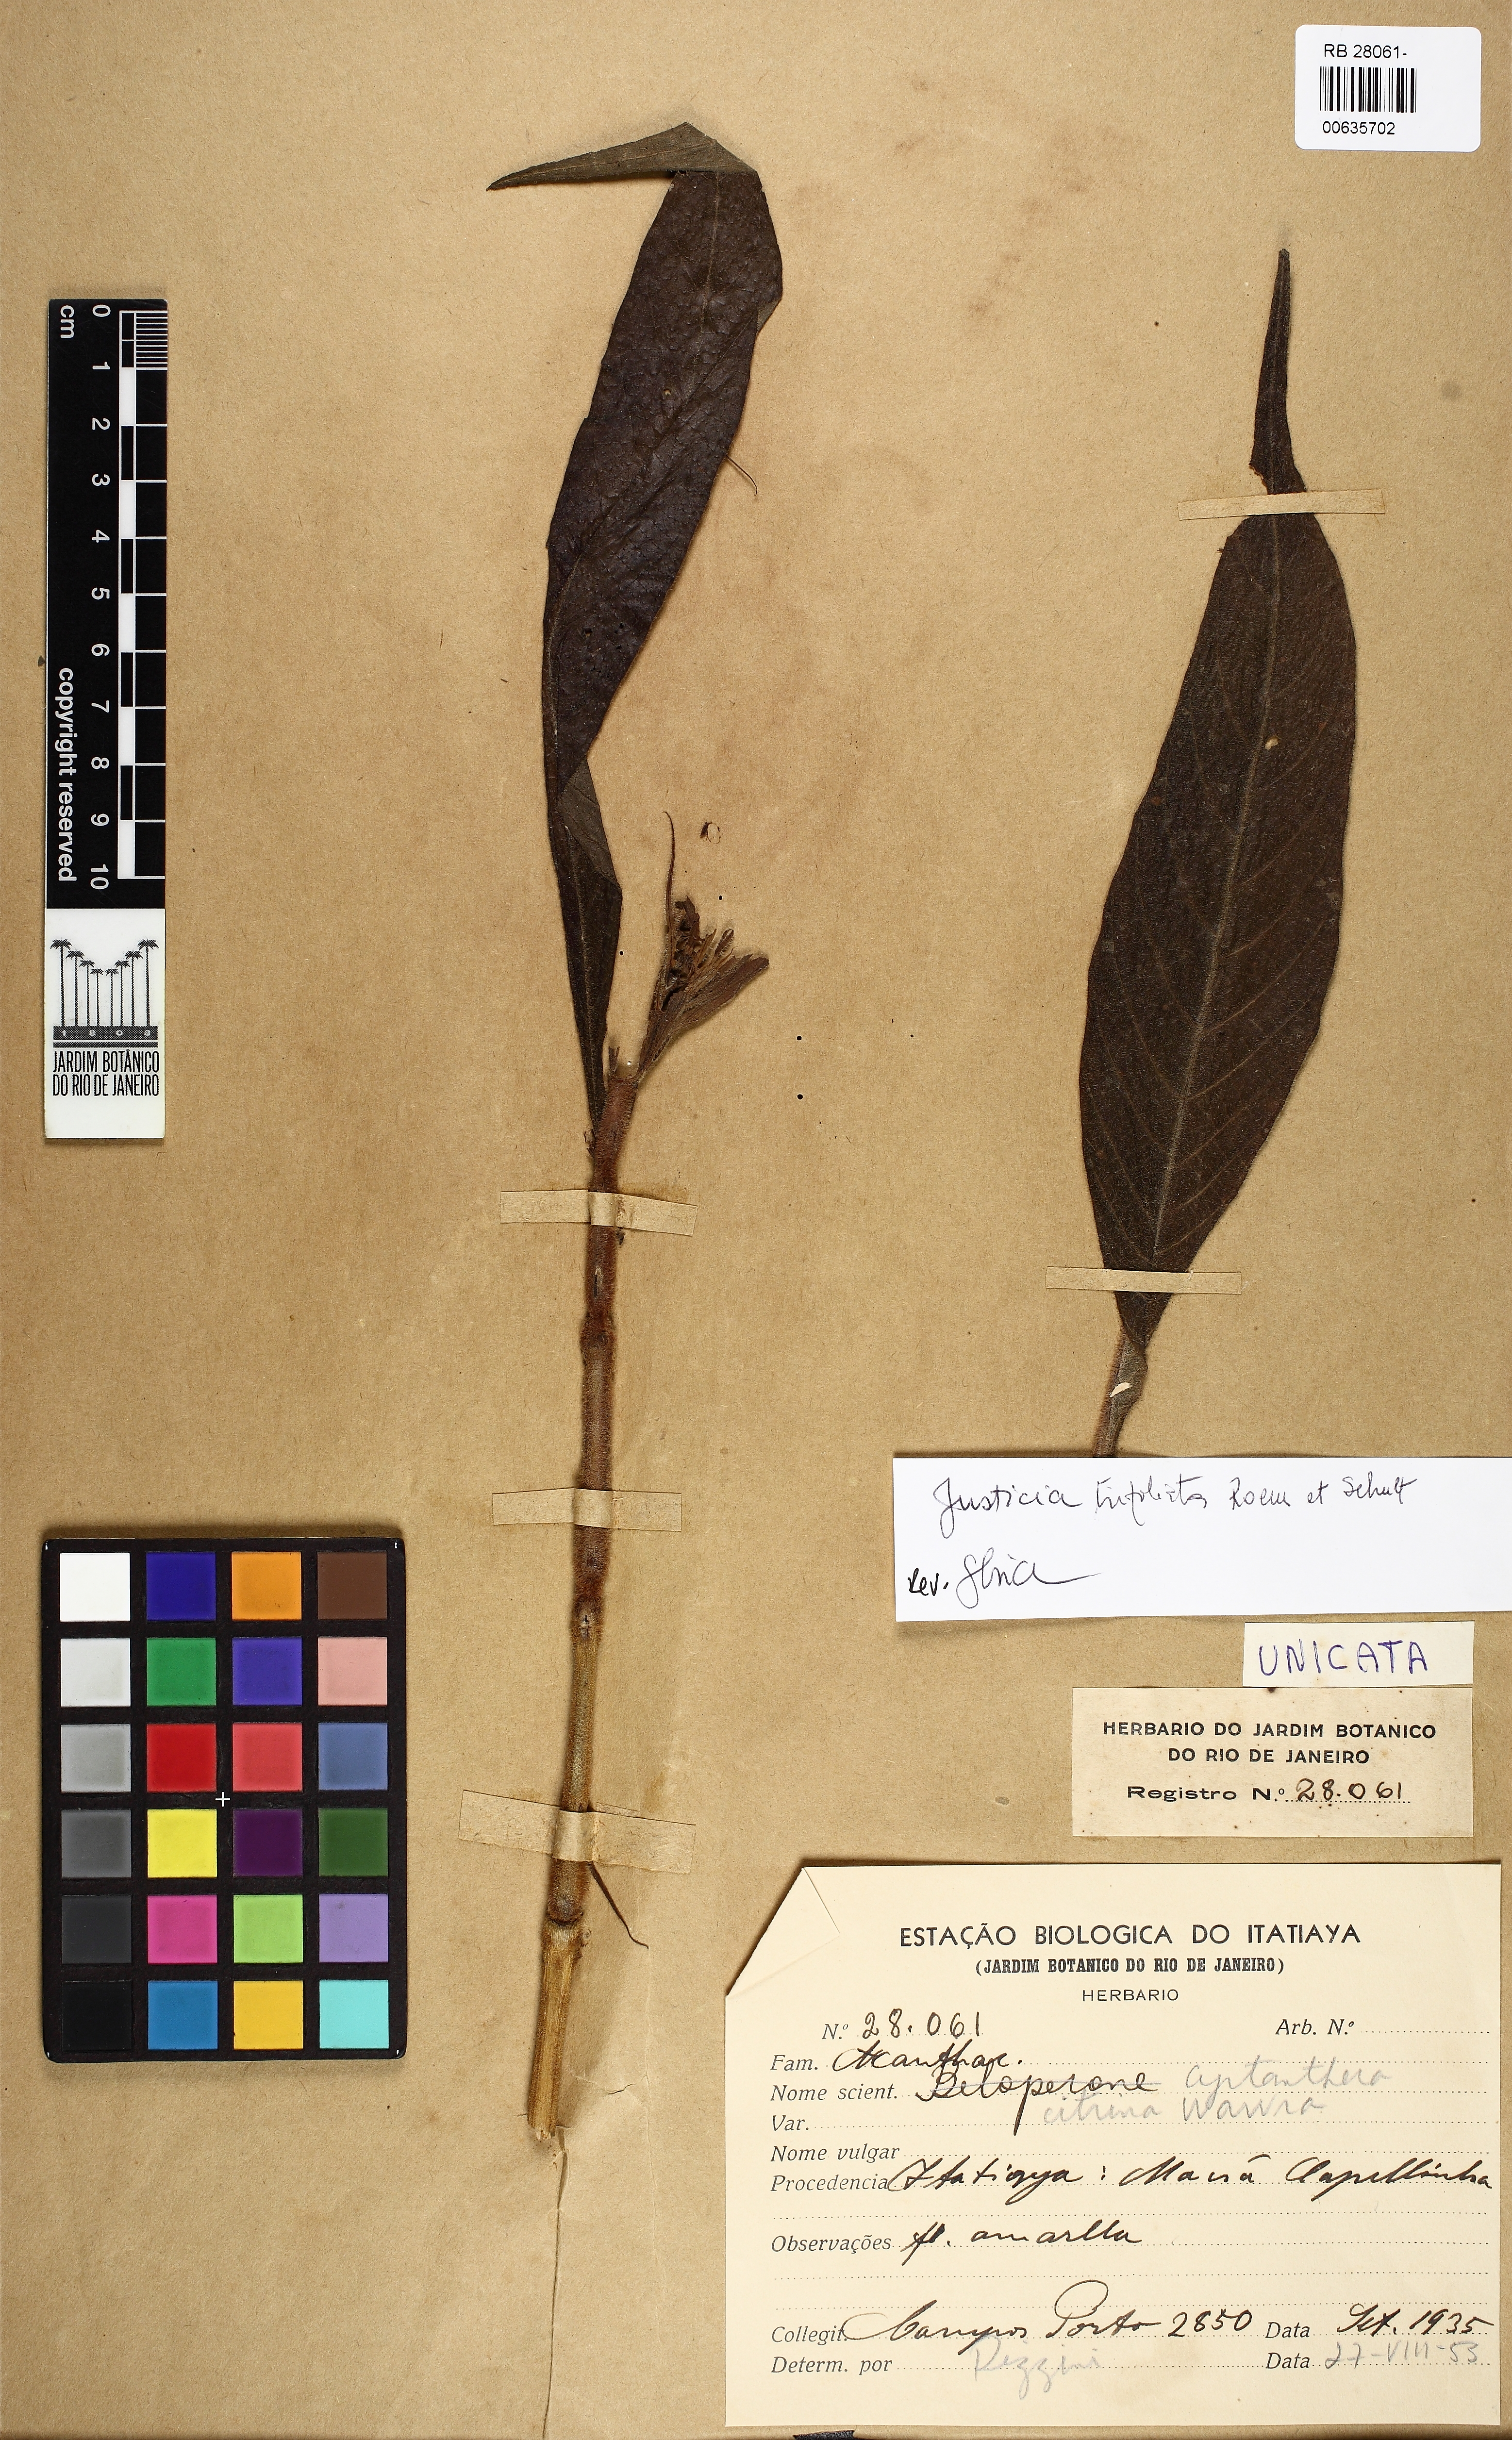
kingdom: Plantae
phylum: Tracheophyta
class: Magnoliopsida
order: Lamiales
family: Acanthaceae
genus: Justicia
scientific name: Justicia citrina
